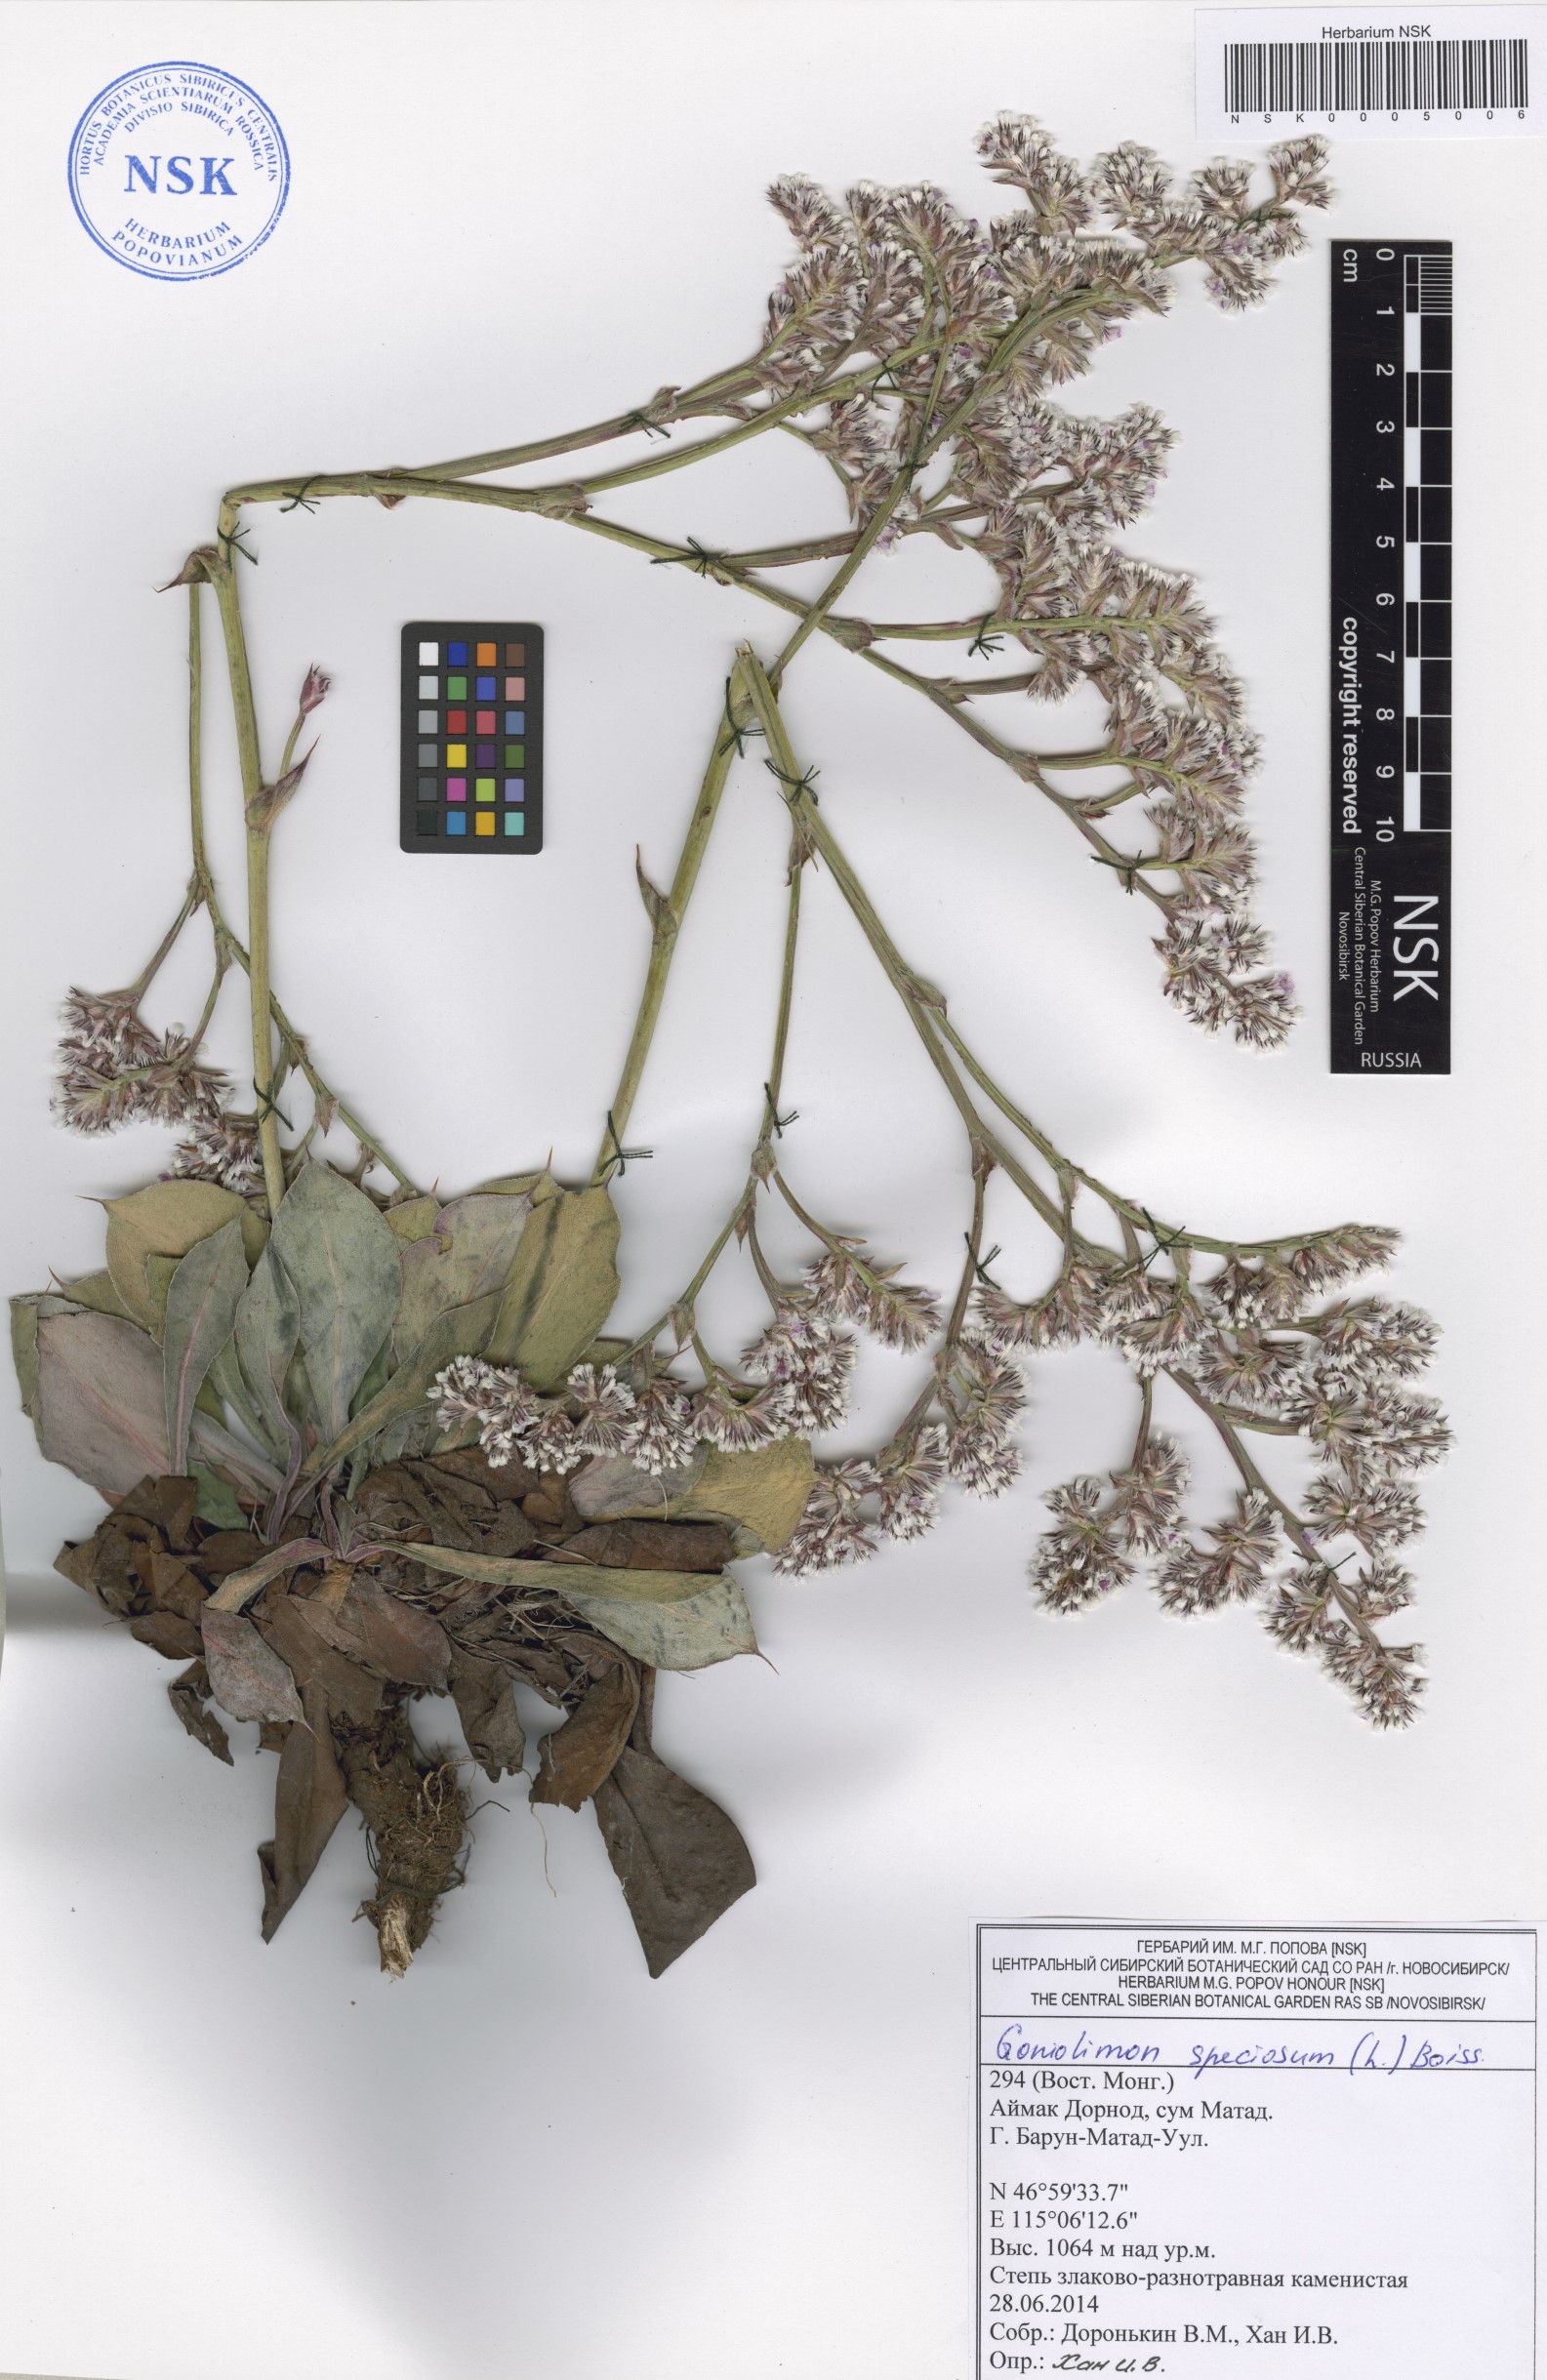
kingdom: Plantae
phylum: Tracheophyta
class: Magnoliopsida
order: Caryophyllales
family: Plumbaginaceae
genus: Goniolimon
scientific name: Goniolimon speciosum
